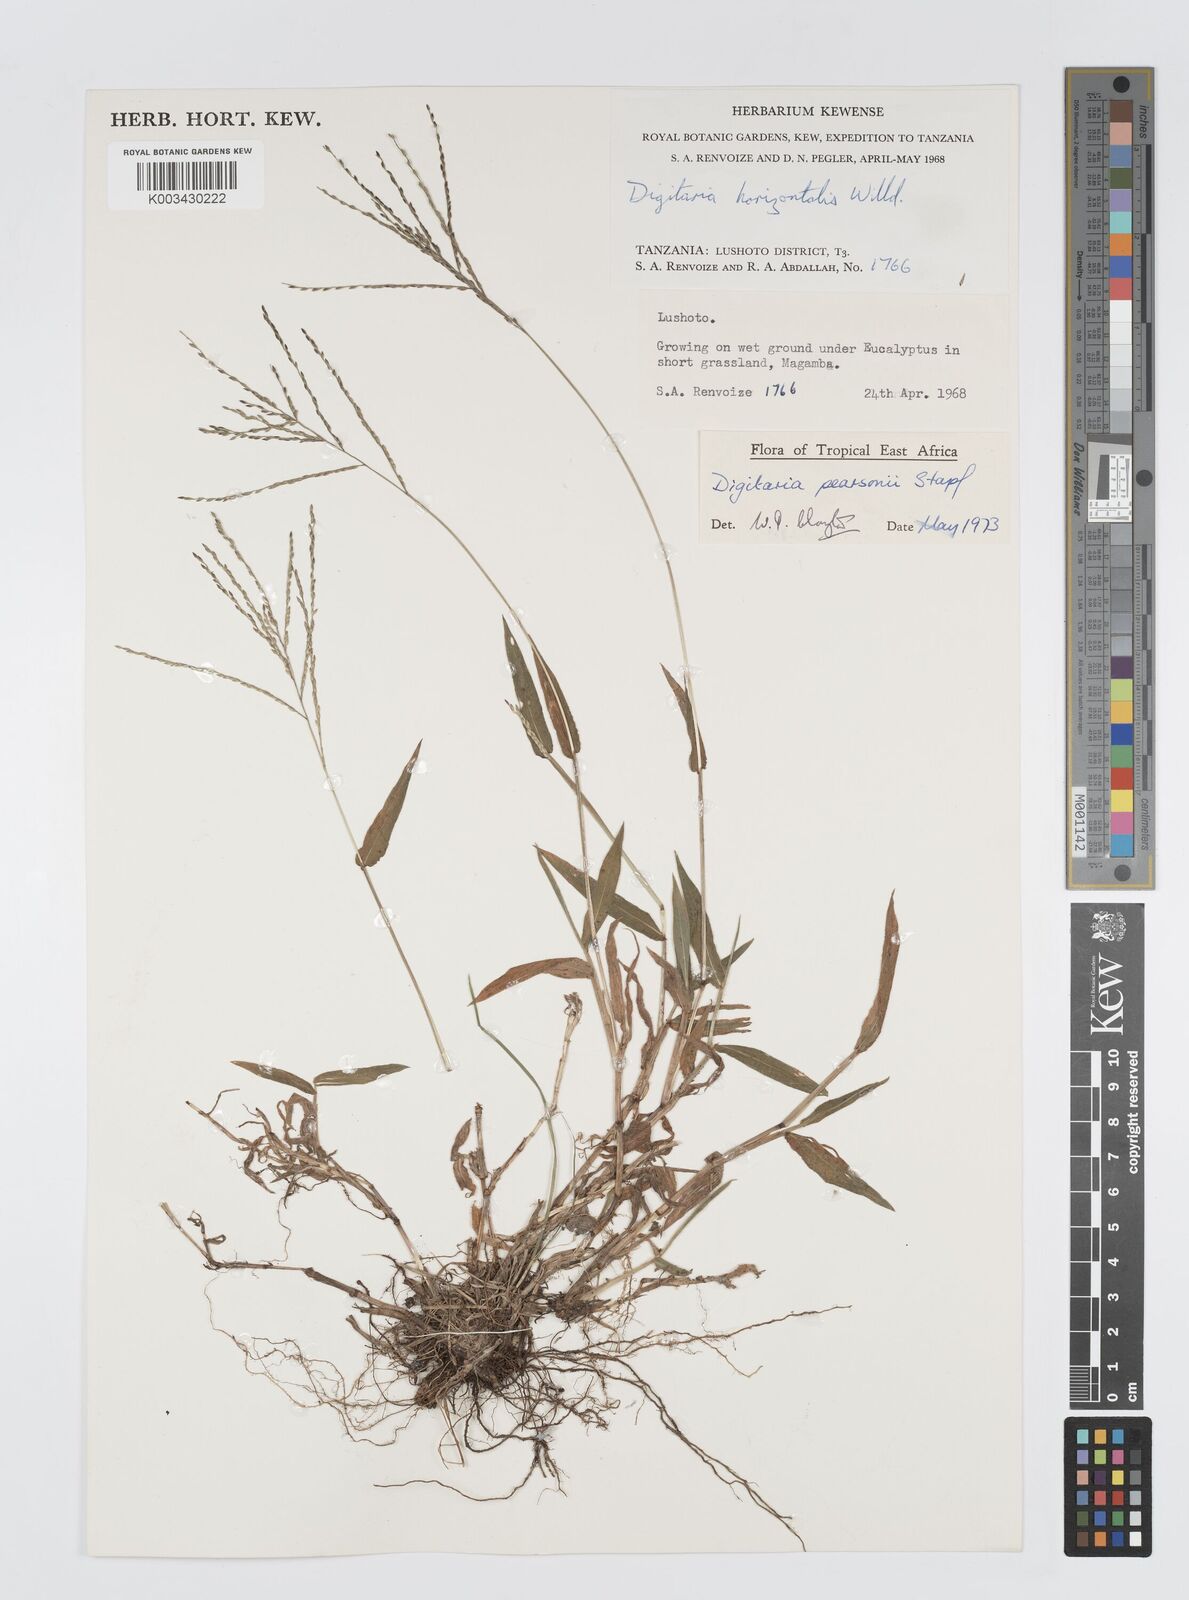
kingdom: Plantae
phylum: Tracheophyta
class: Liliopsida
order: Poales
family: Poaceae
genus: Digitaria
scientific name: Digitaria pearsonii
